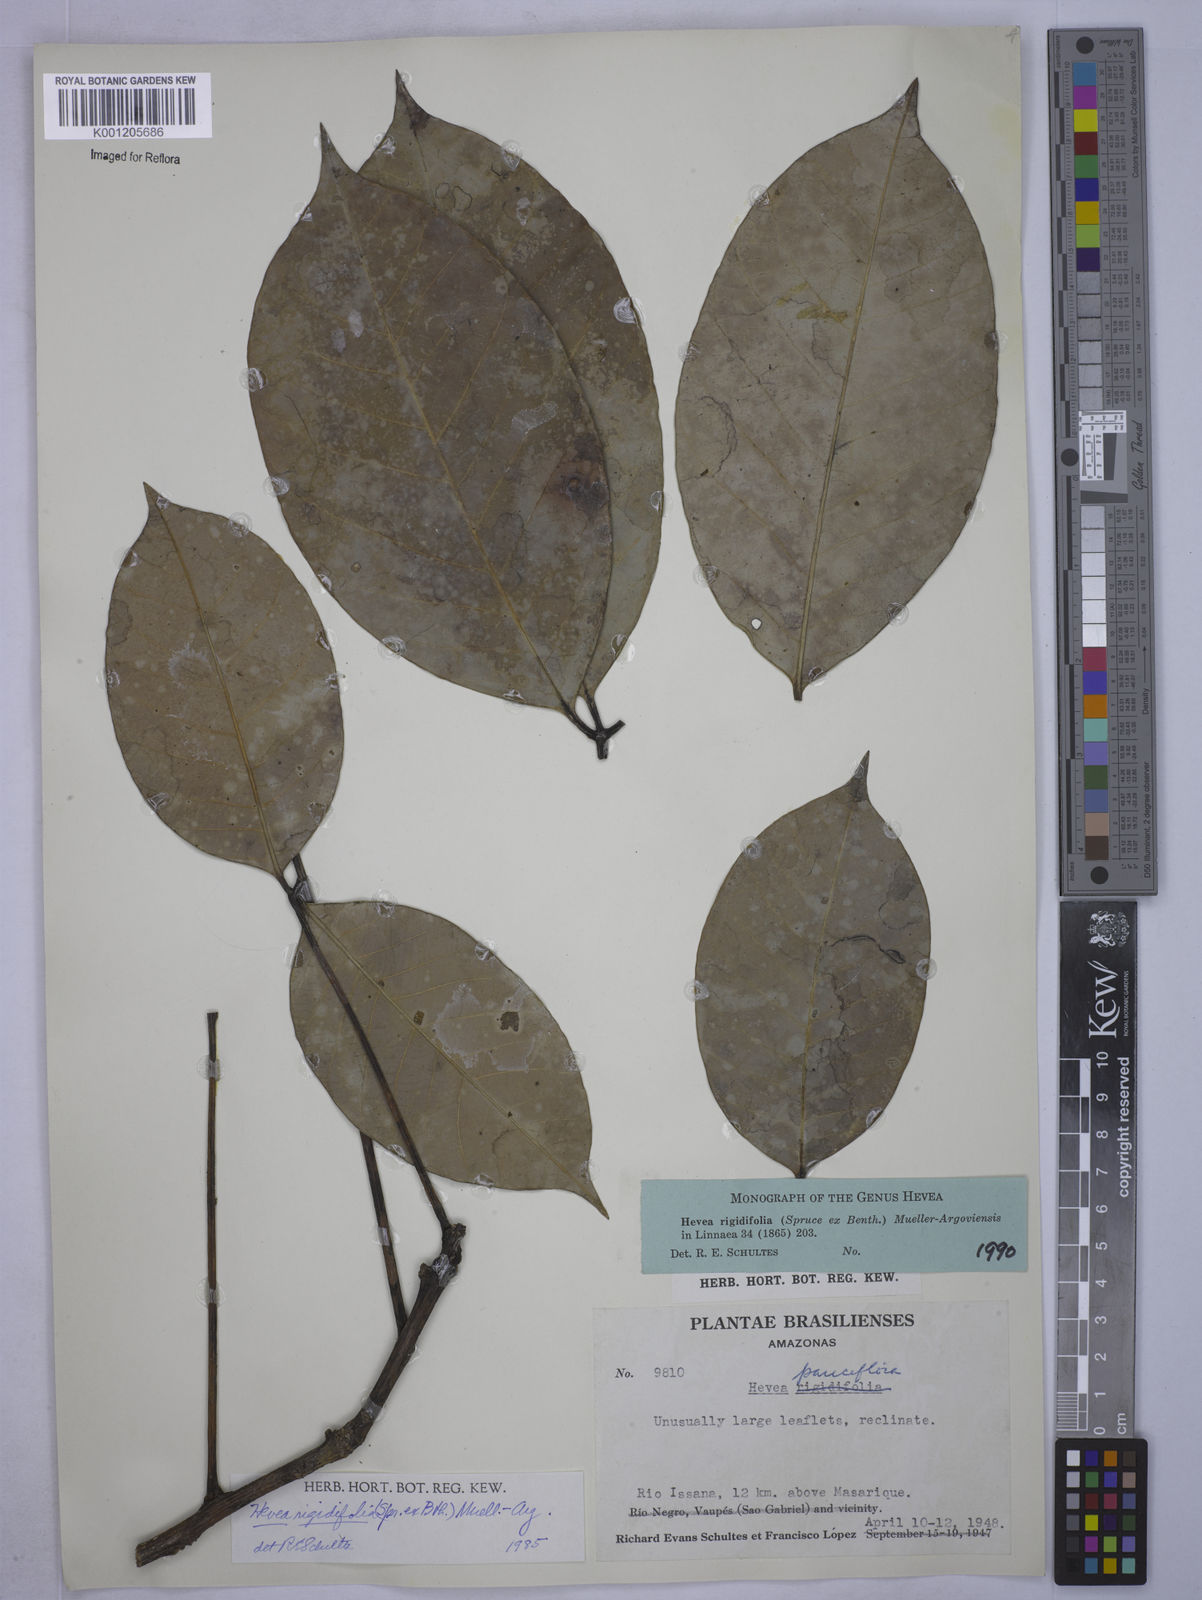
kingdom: Plantae
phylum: Tracheophyta
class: Magnoliopsida
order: Malpighiales
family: Euphorbiaceae
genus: Hevea
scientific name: Hevea pauciflora
